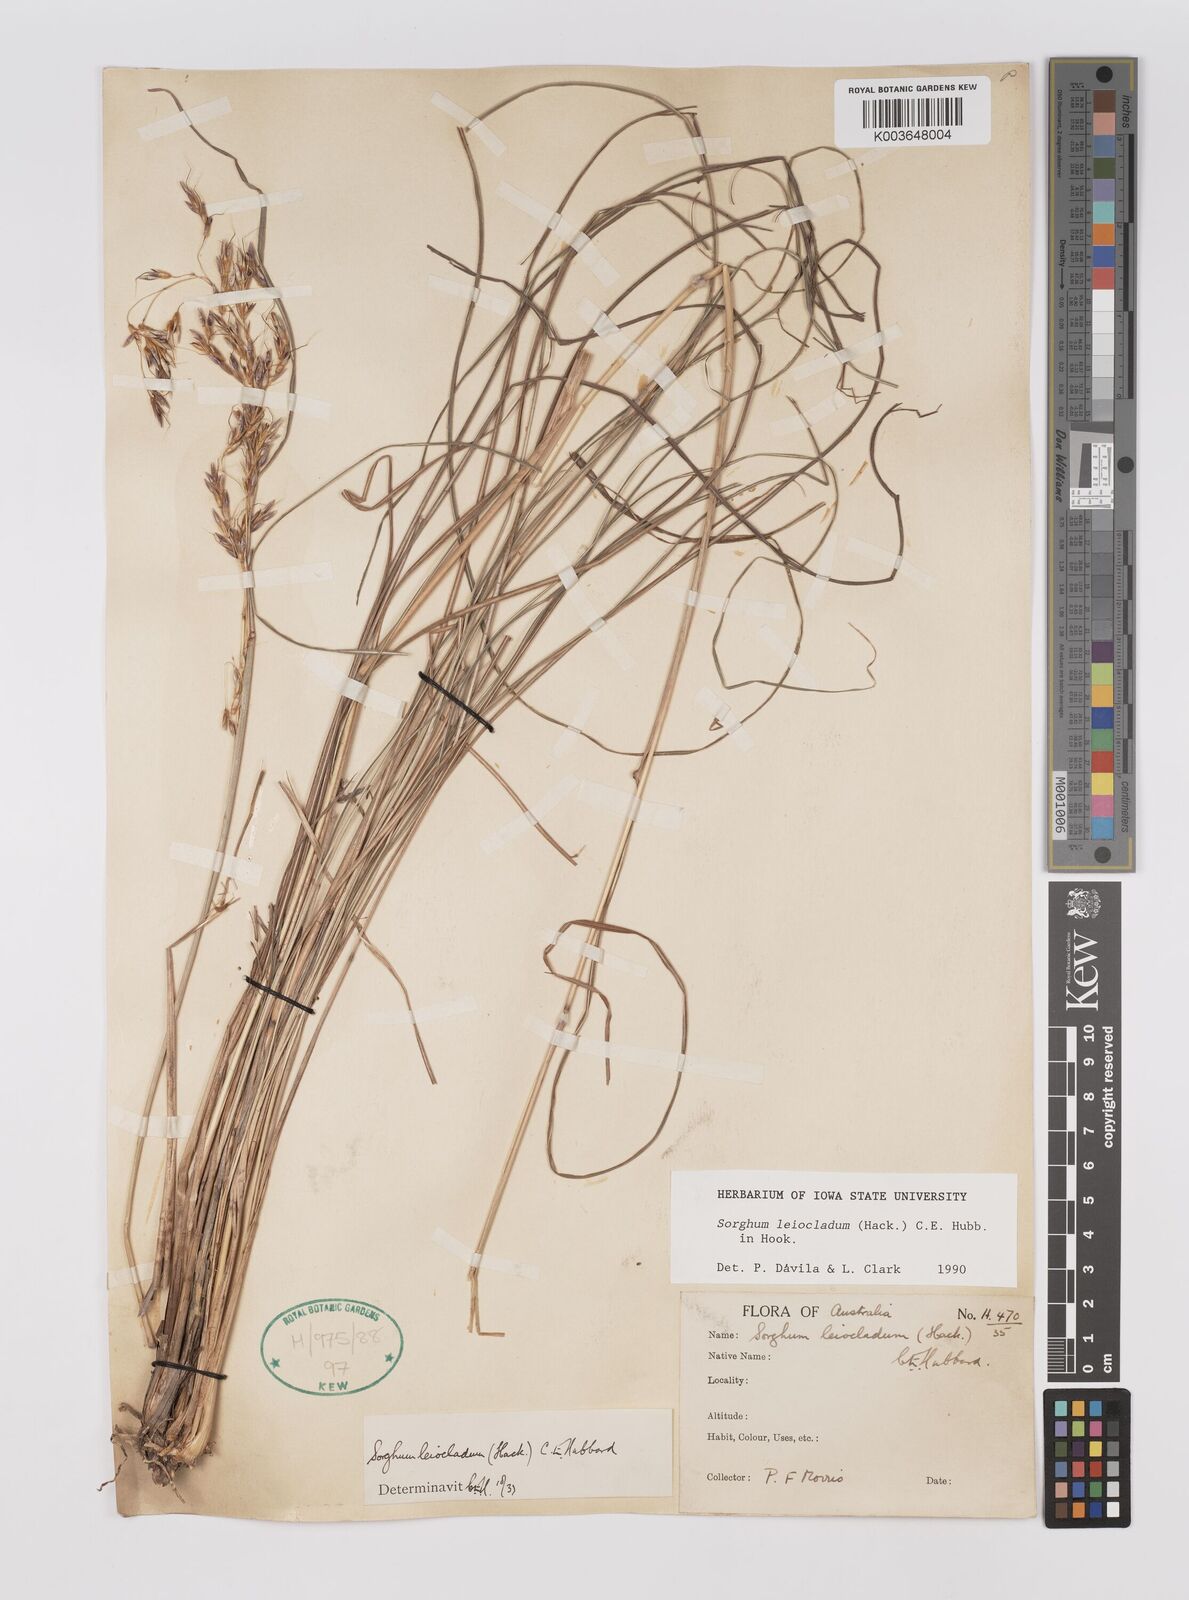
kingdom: Plantae
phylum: Tracheophyta
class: Liliopsida
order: Poales
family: Poaceae
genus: Sarga
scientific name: Sarga leioclada
